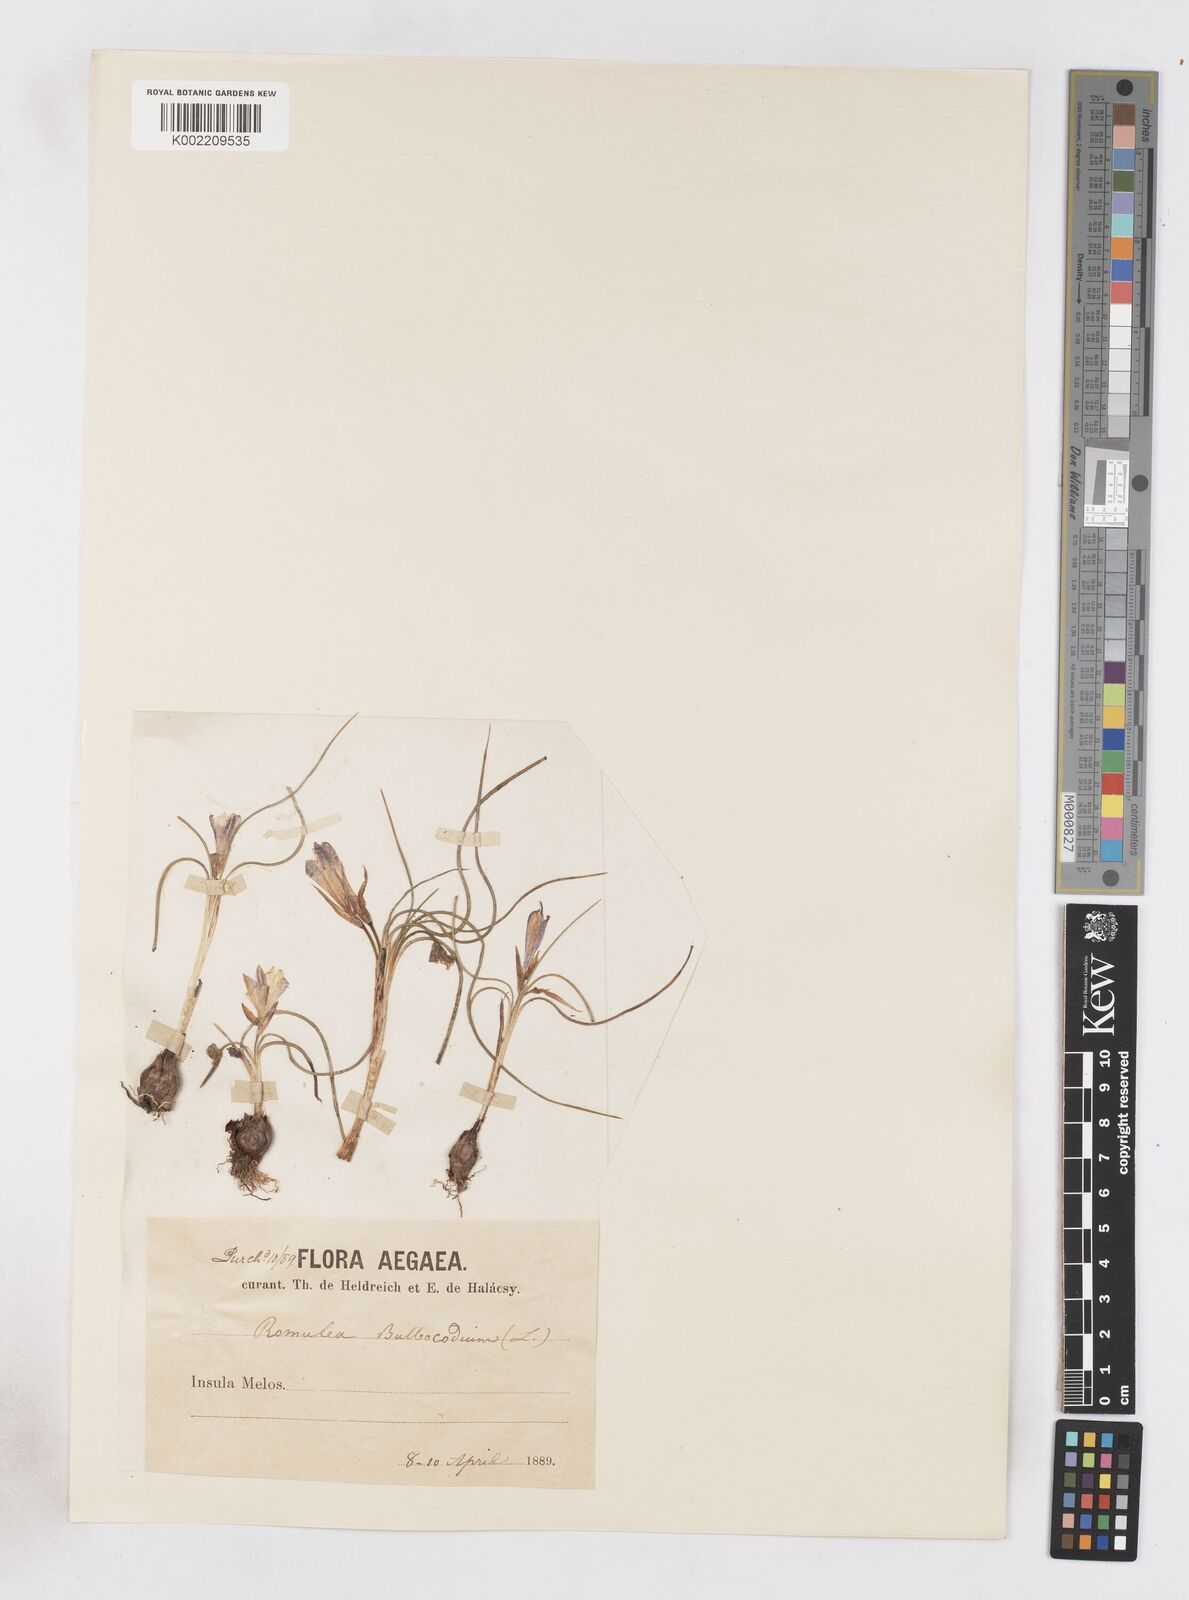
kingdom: Plantae
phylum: Tracheophyta
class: Liliopsida
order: Asparagales
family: Iridaceae
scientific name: Iridaceae
